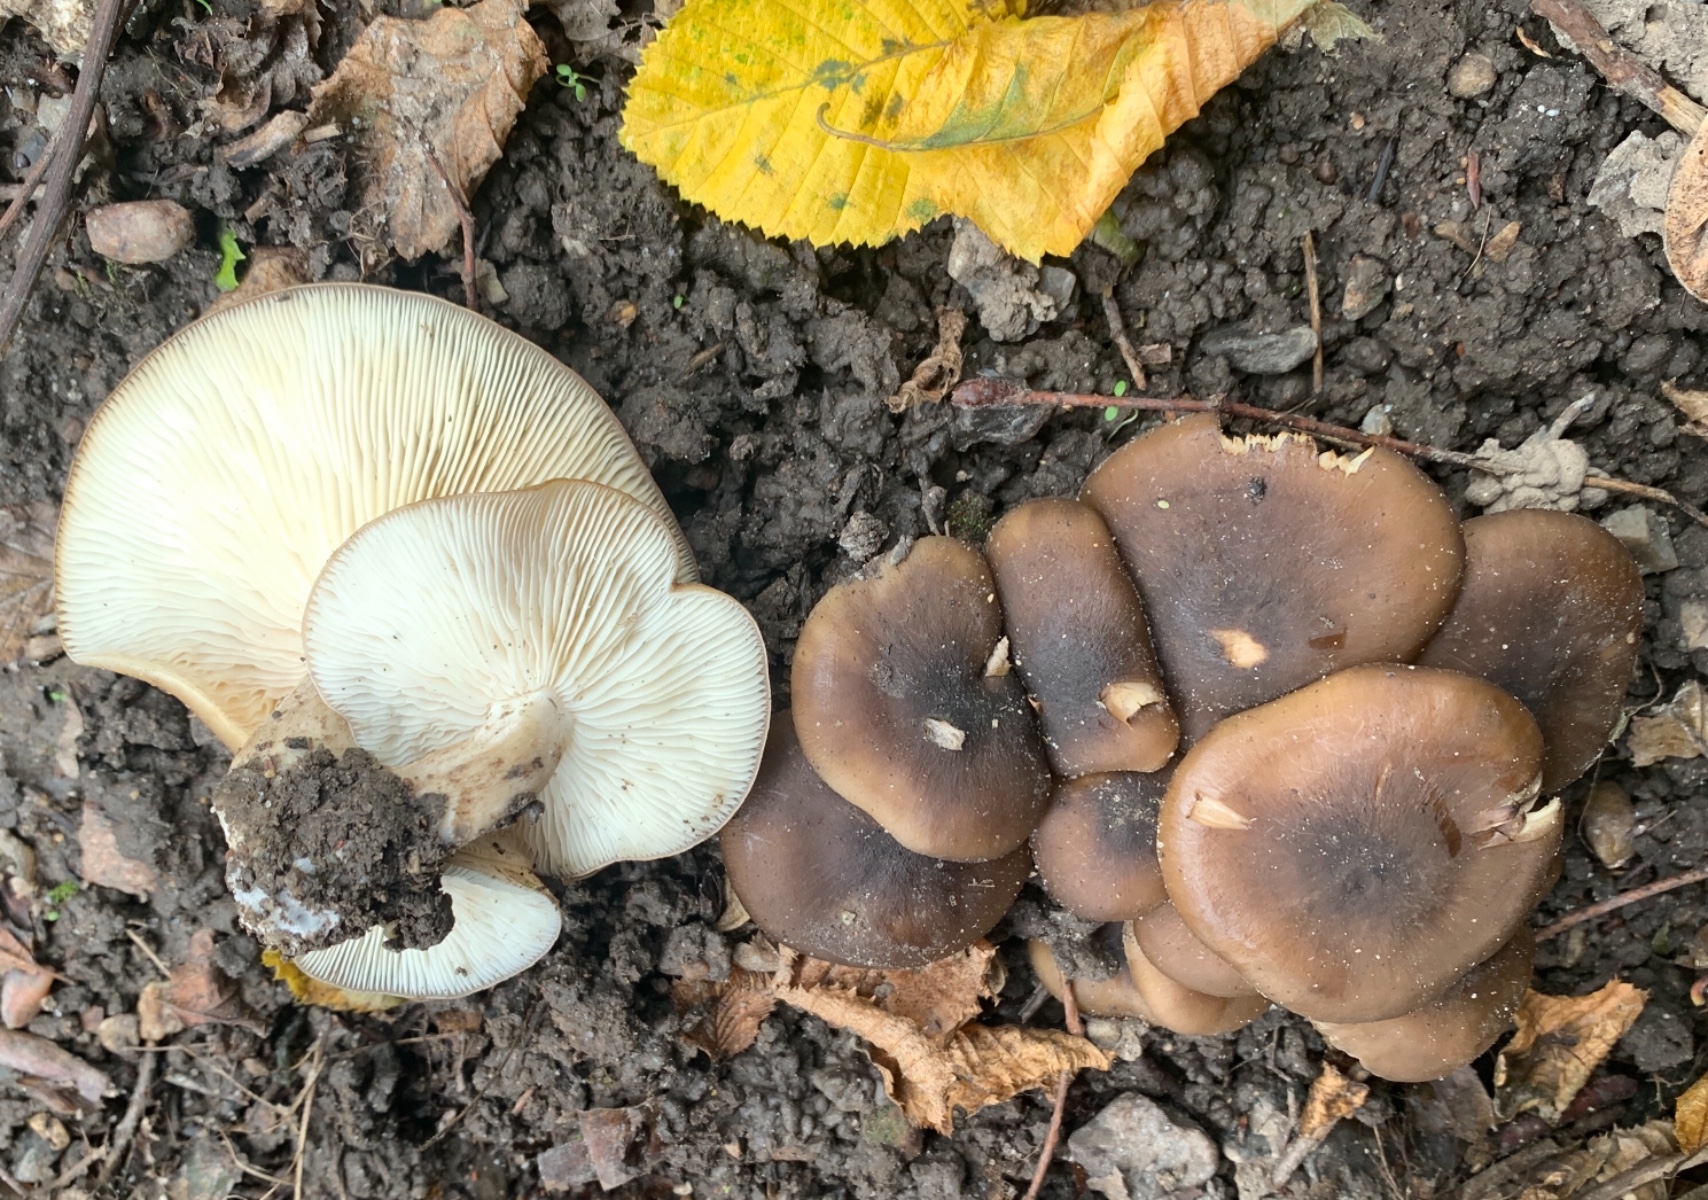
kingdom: Fungi
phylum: Basidiomycota
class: Agaricomycetes
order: Agaricales
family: Lyophyllaceae
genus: Lyophyllum
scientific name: Lyophyllum decastes
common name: Clustered domecap
